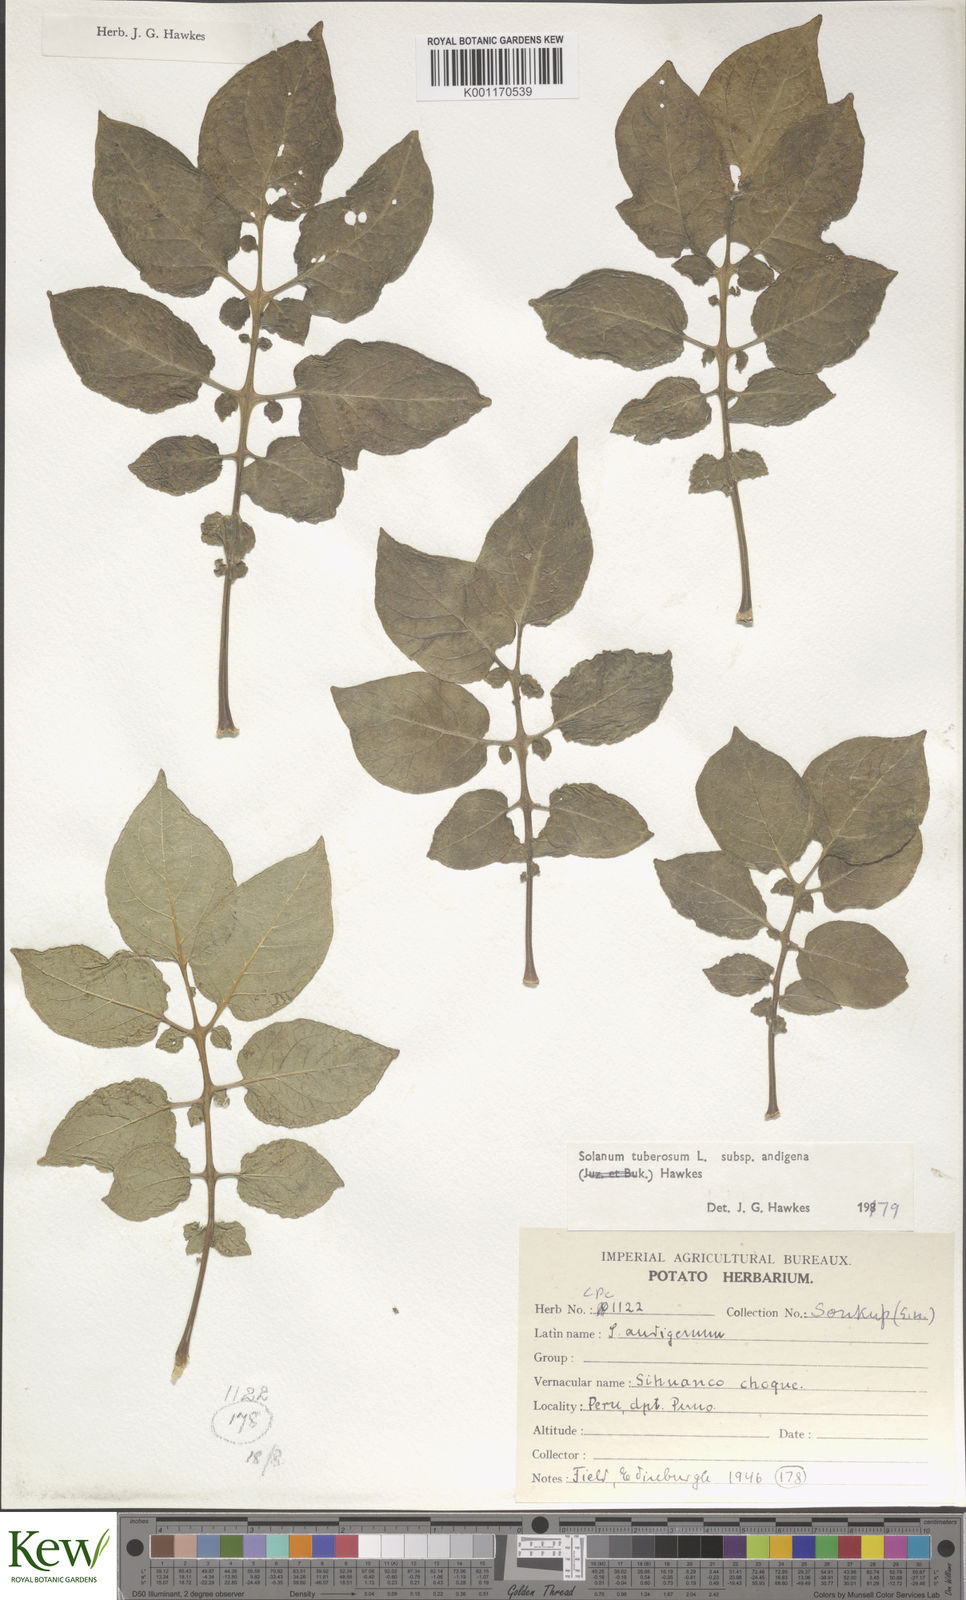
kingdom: Plantae
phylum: Tracheophyta
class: Magnoliopsida
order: Solanales
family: Solanaceae
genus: Solanum
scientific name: Solanum tuberosum
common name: Potato
